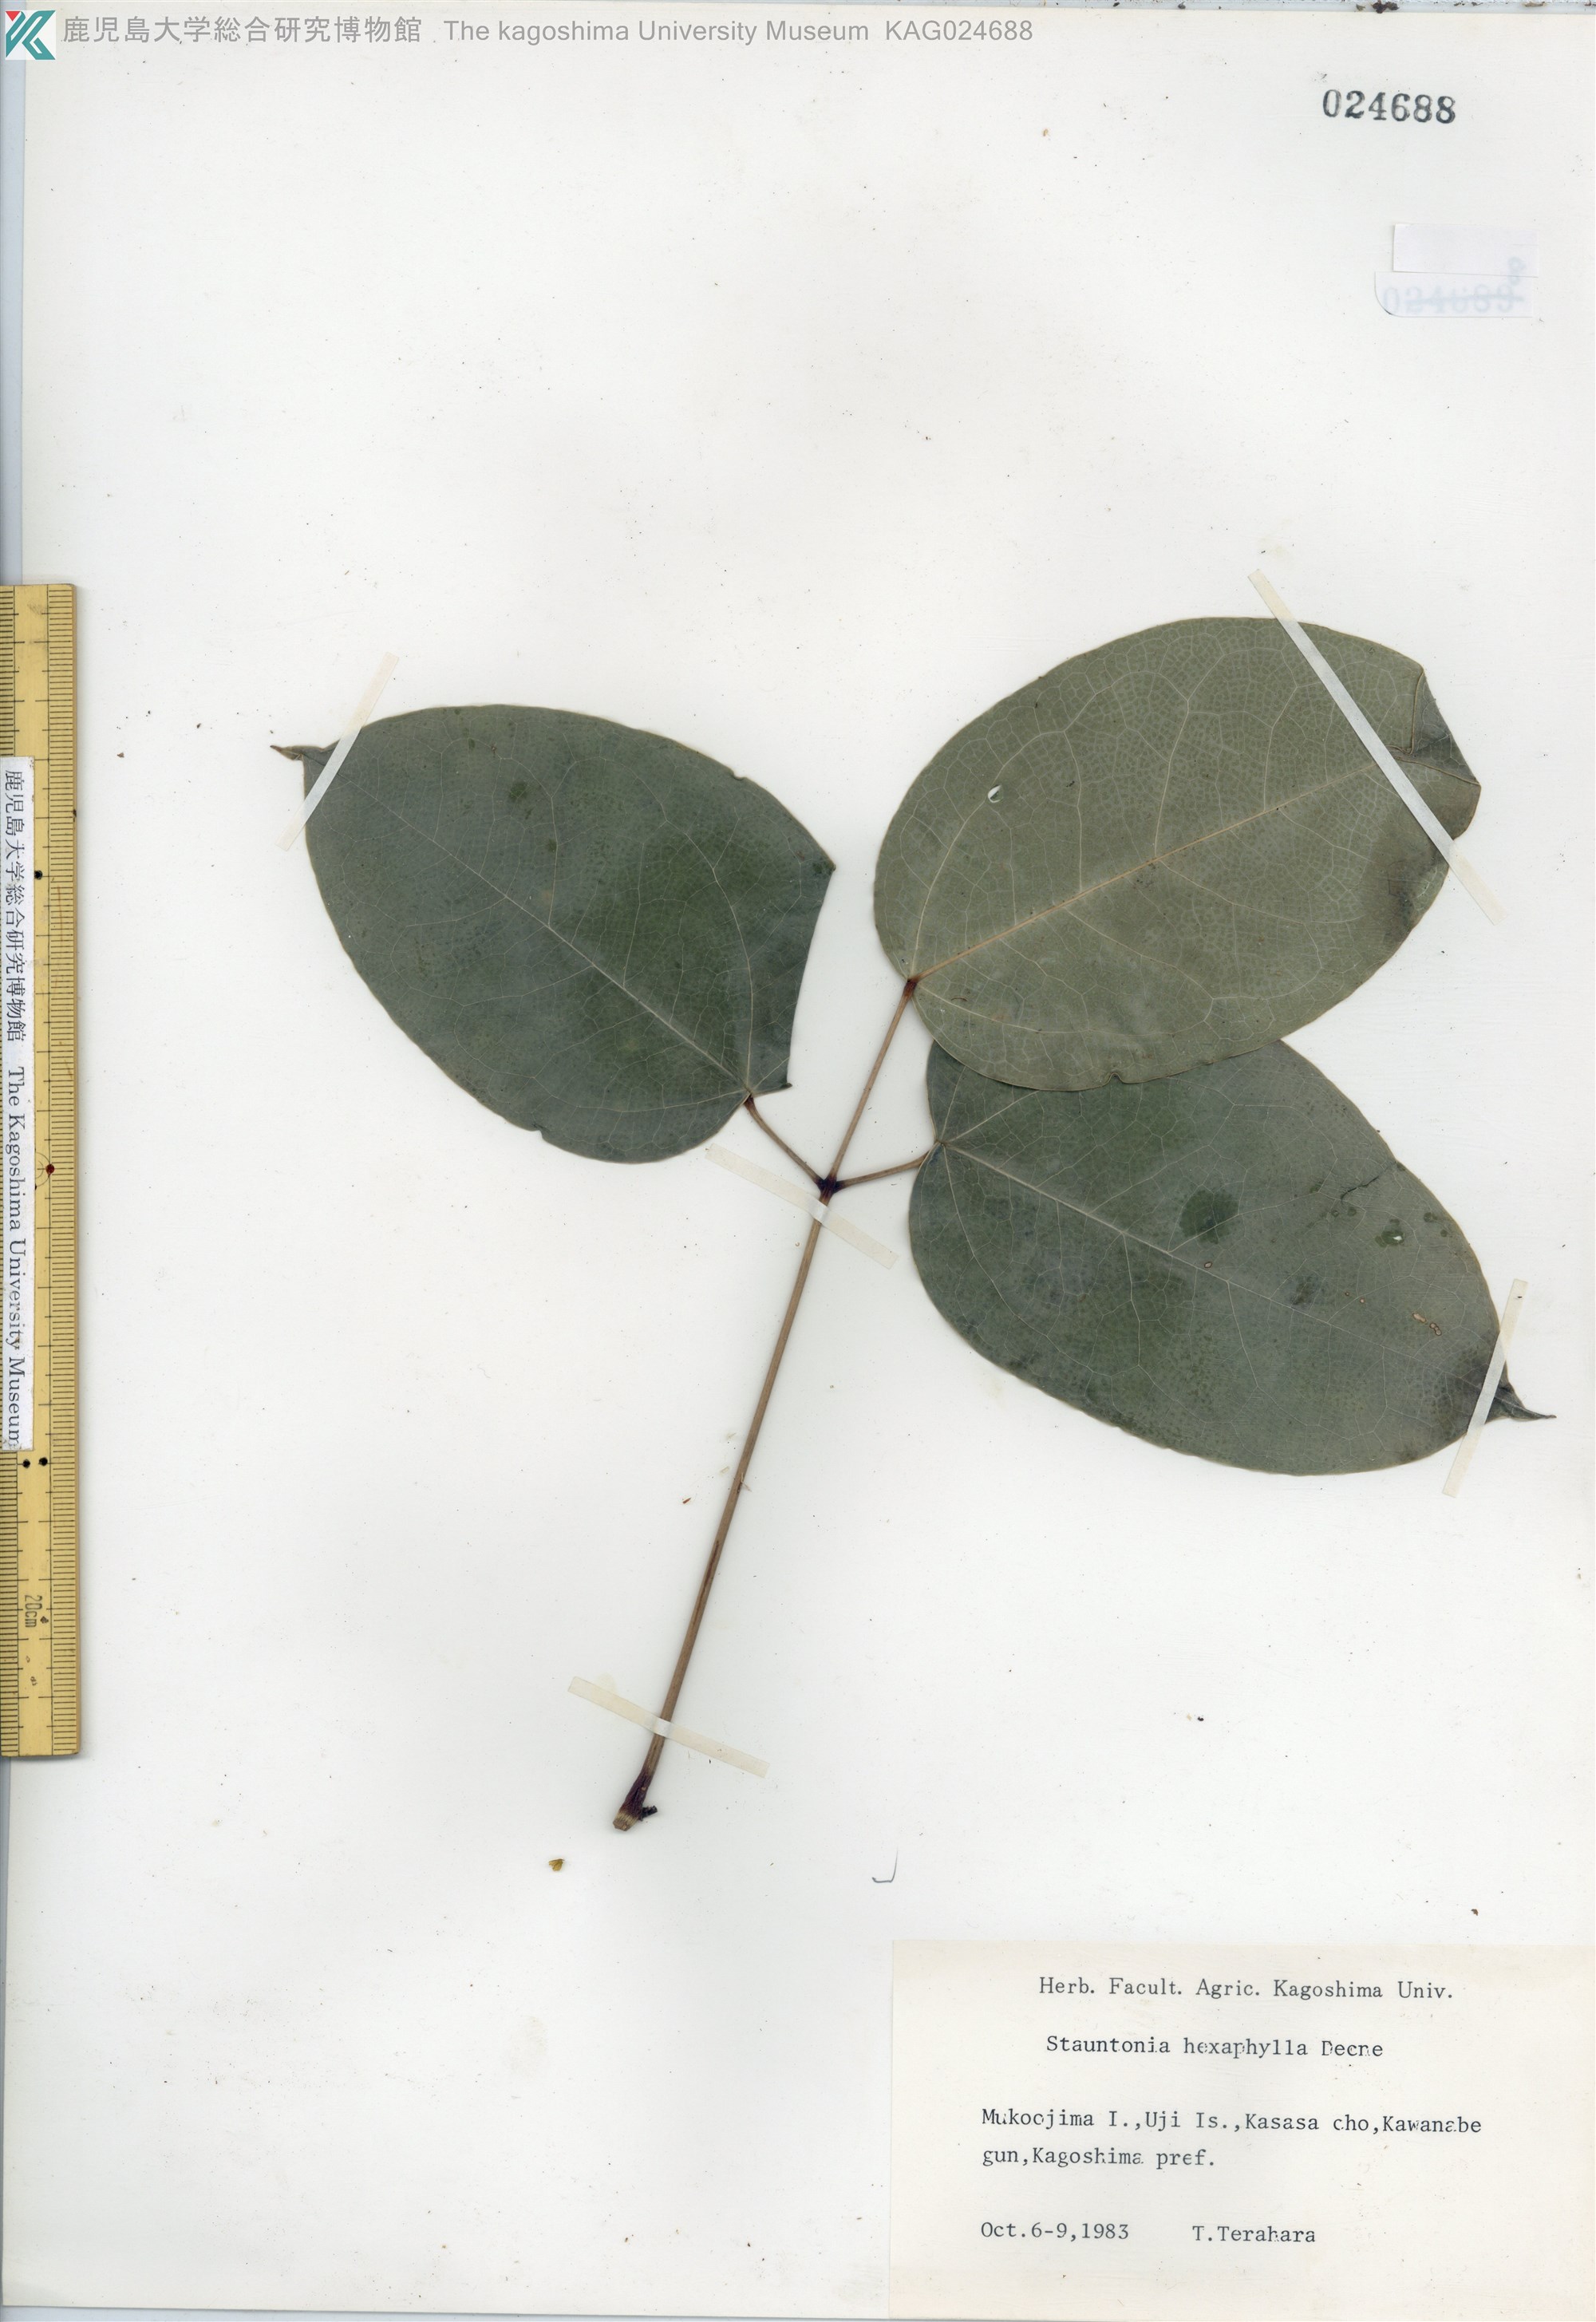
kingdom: Plantae
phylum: Tracheophyta
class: Magnoliopsida
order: Ranunculales
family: Lardizabalaceae
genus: Stauntonia
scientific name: Stauntonia hexaphylla
